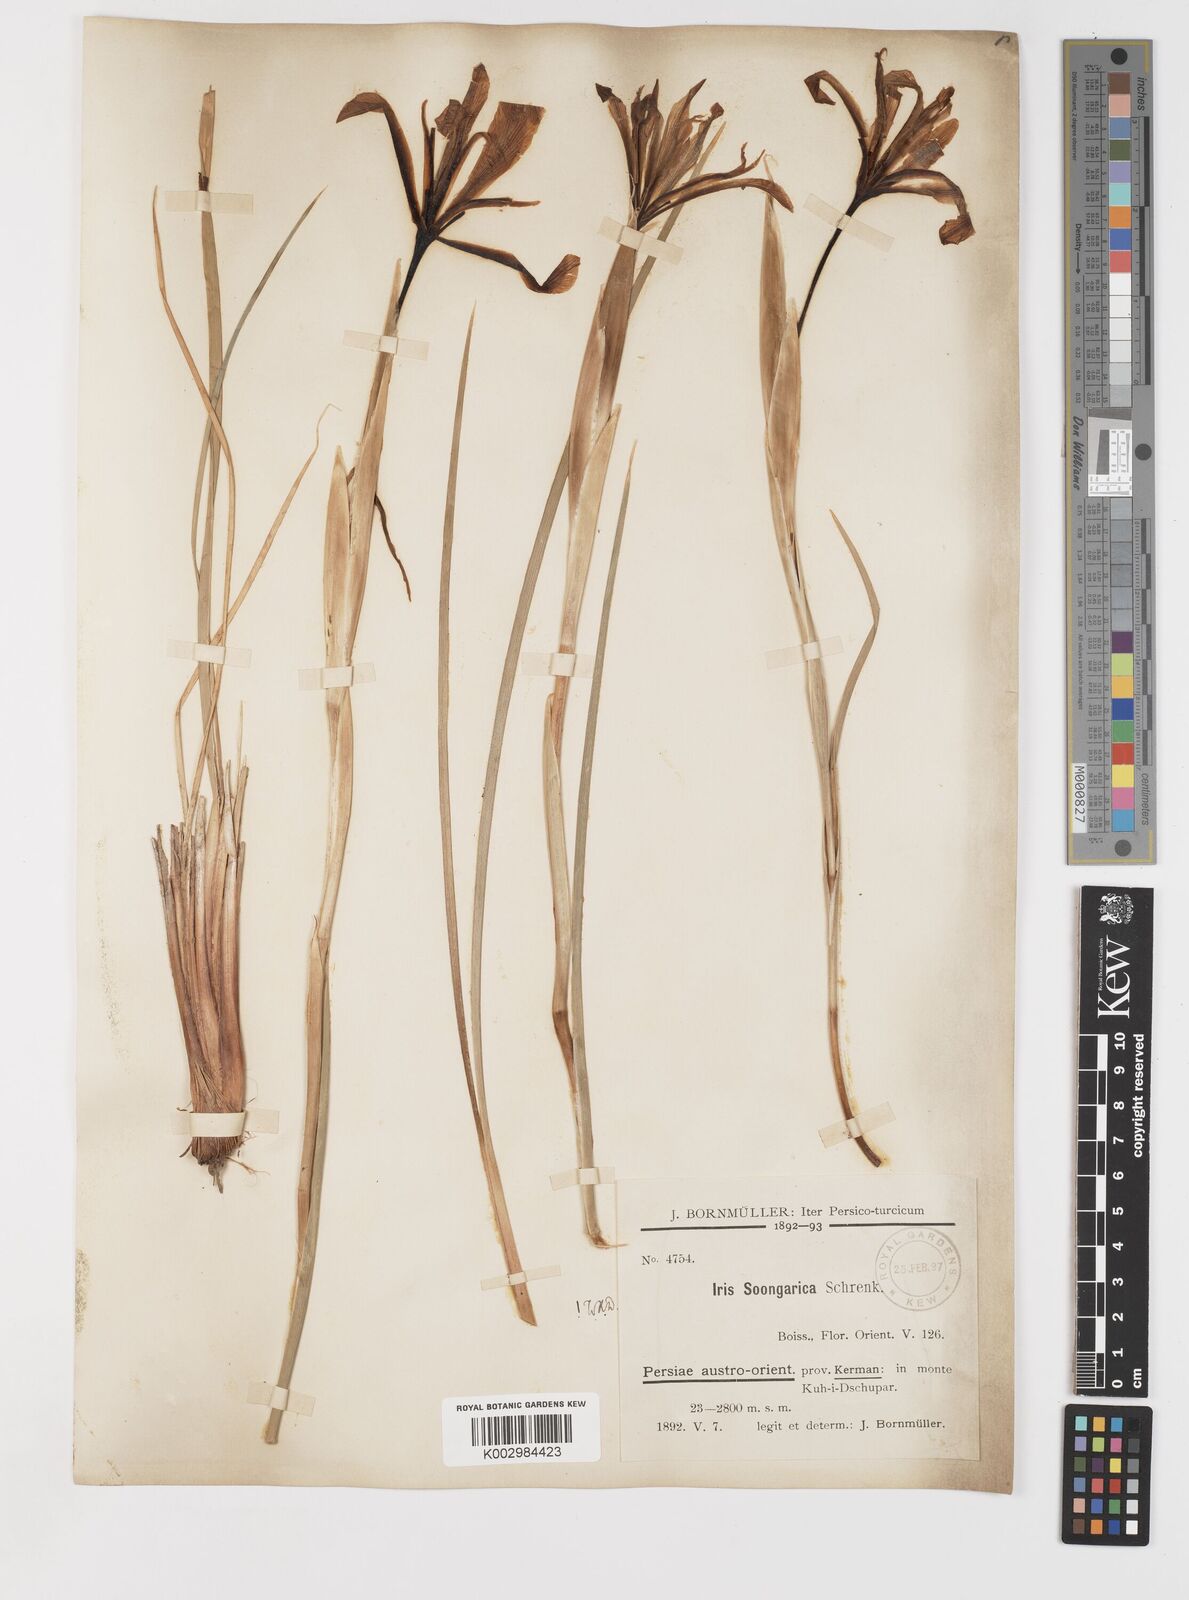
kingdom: Plantae
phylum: Tracheophyta
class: Liliopsida
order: Asparagales
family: Iridaceae
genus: Iris
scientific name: Iris songarica
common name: Songar iris
